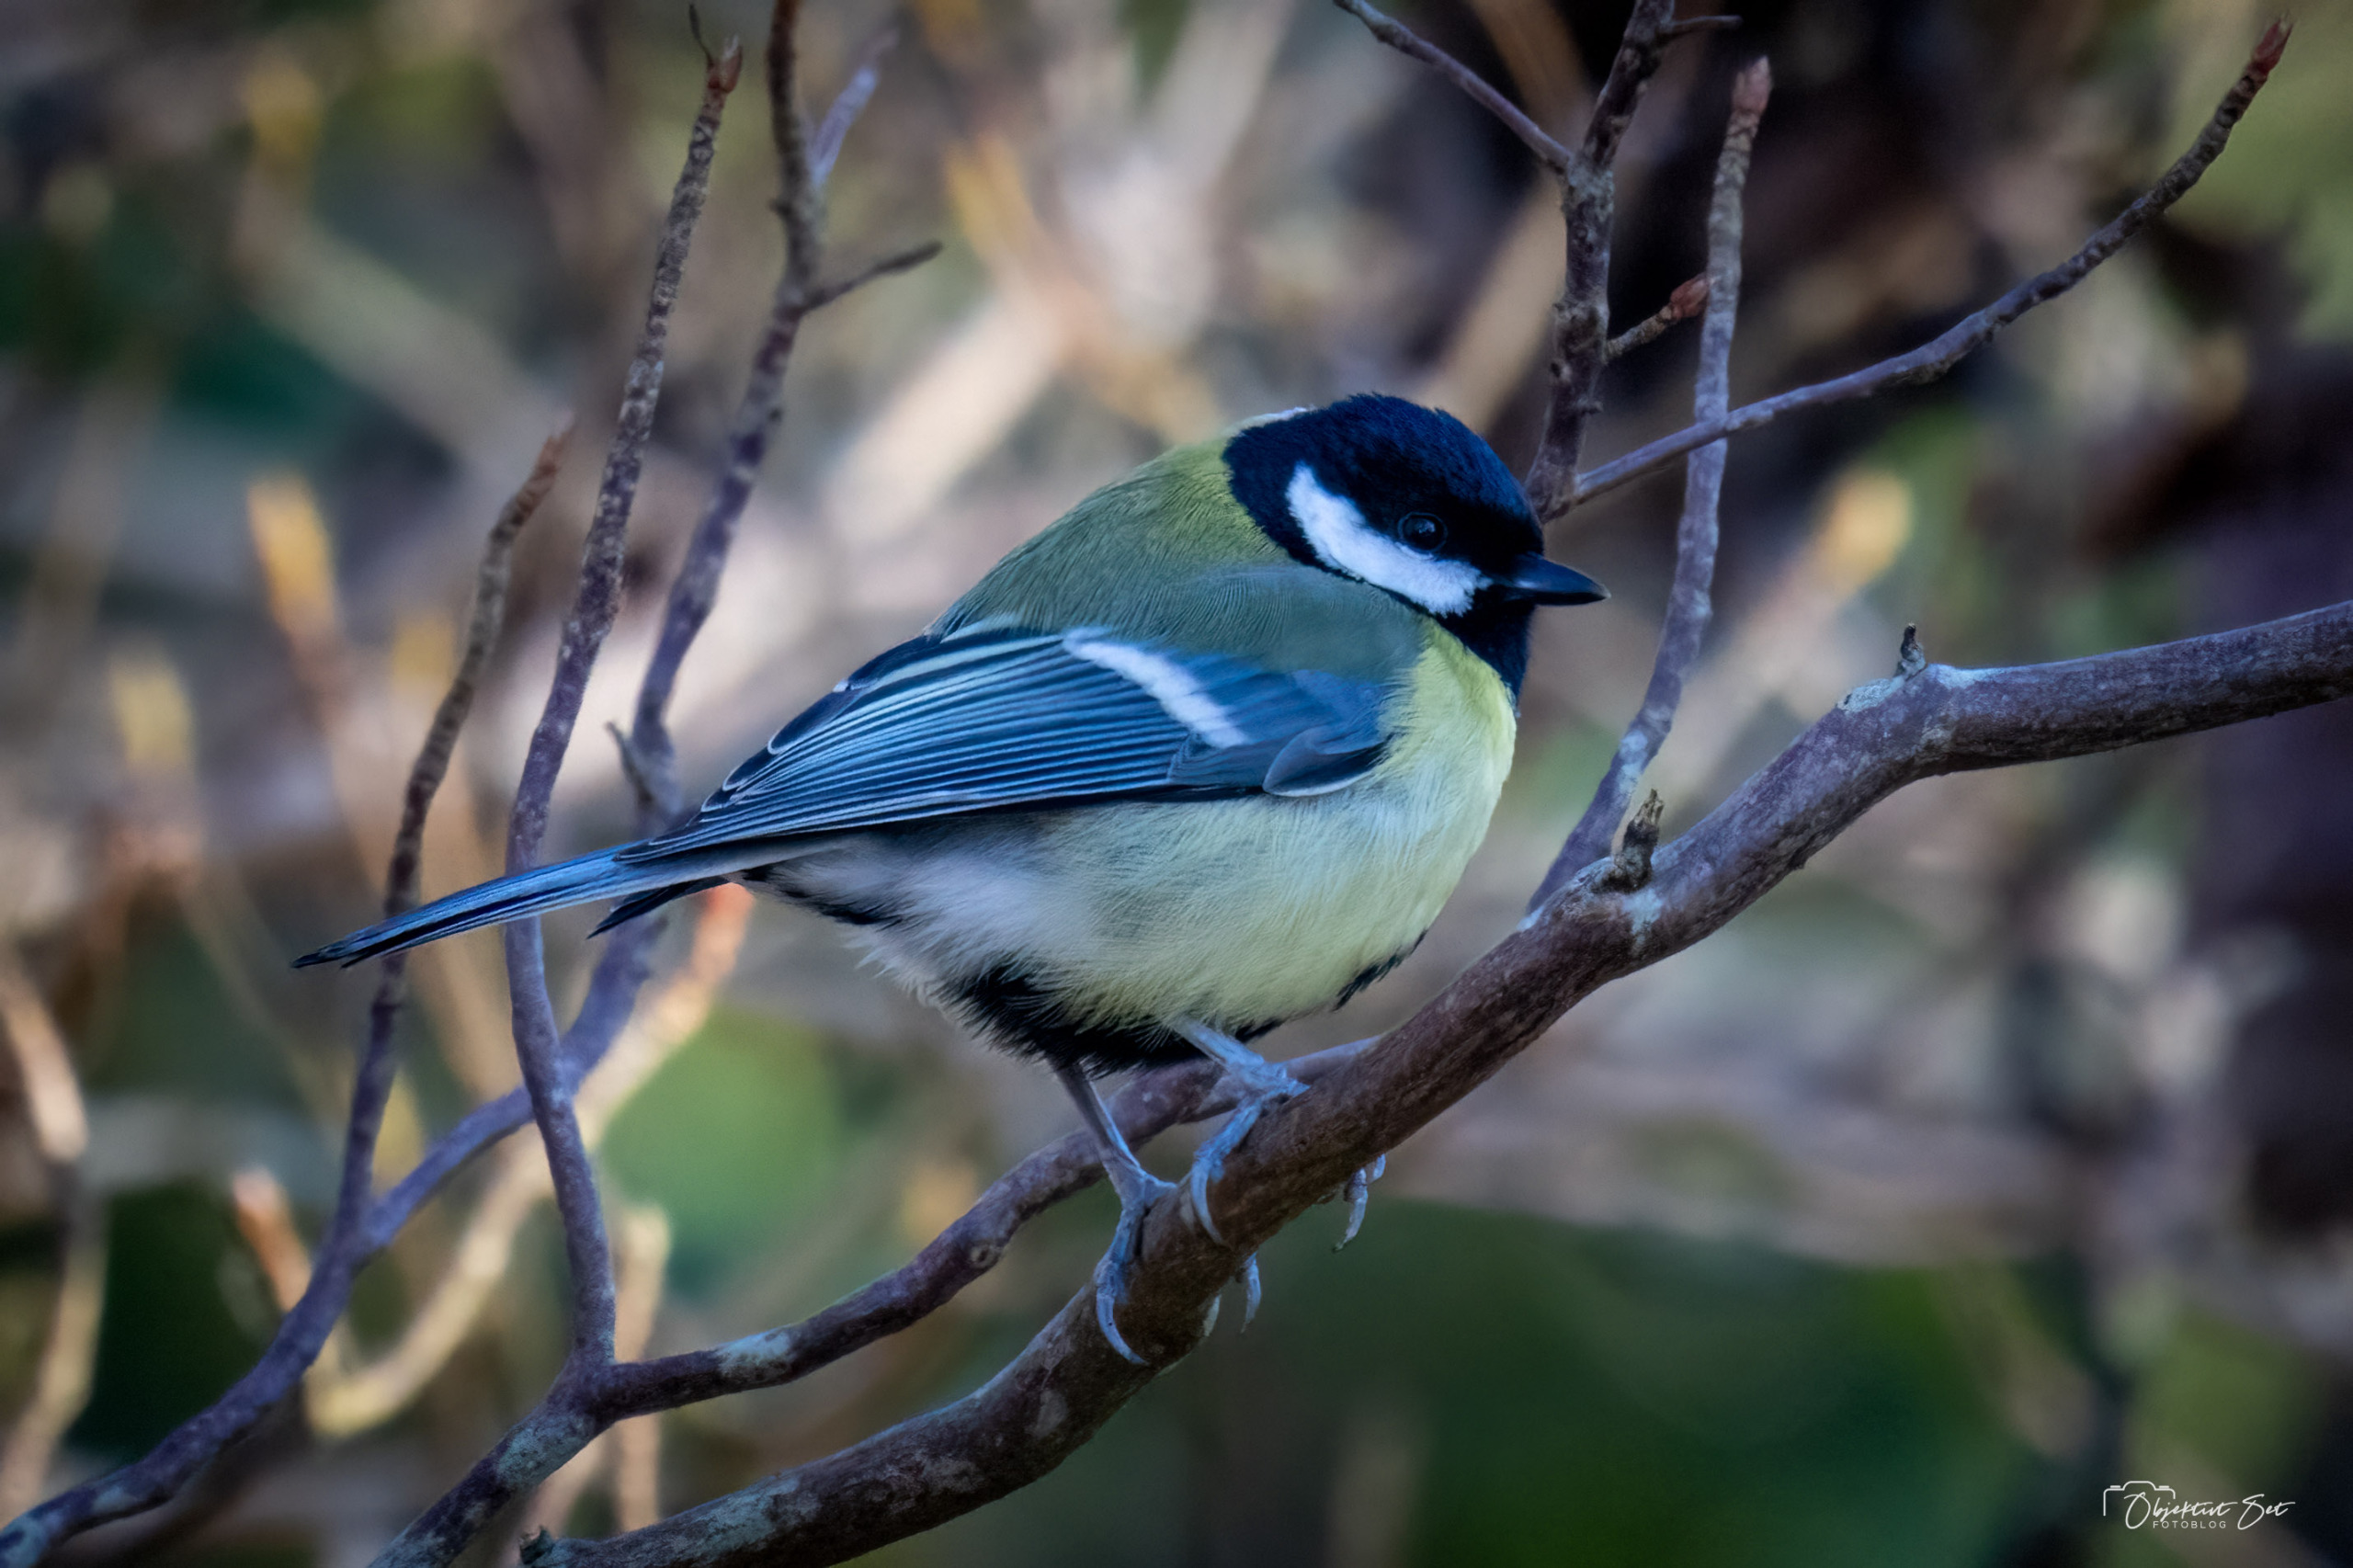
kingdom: Animalia
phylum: Chordata
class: Aves
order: Passeriformes
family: Paridae
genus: Parus
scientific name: Parus major
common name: Musvit
